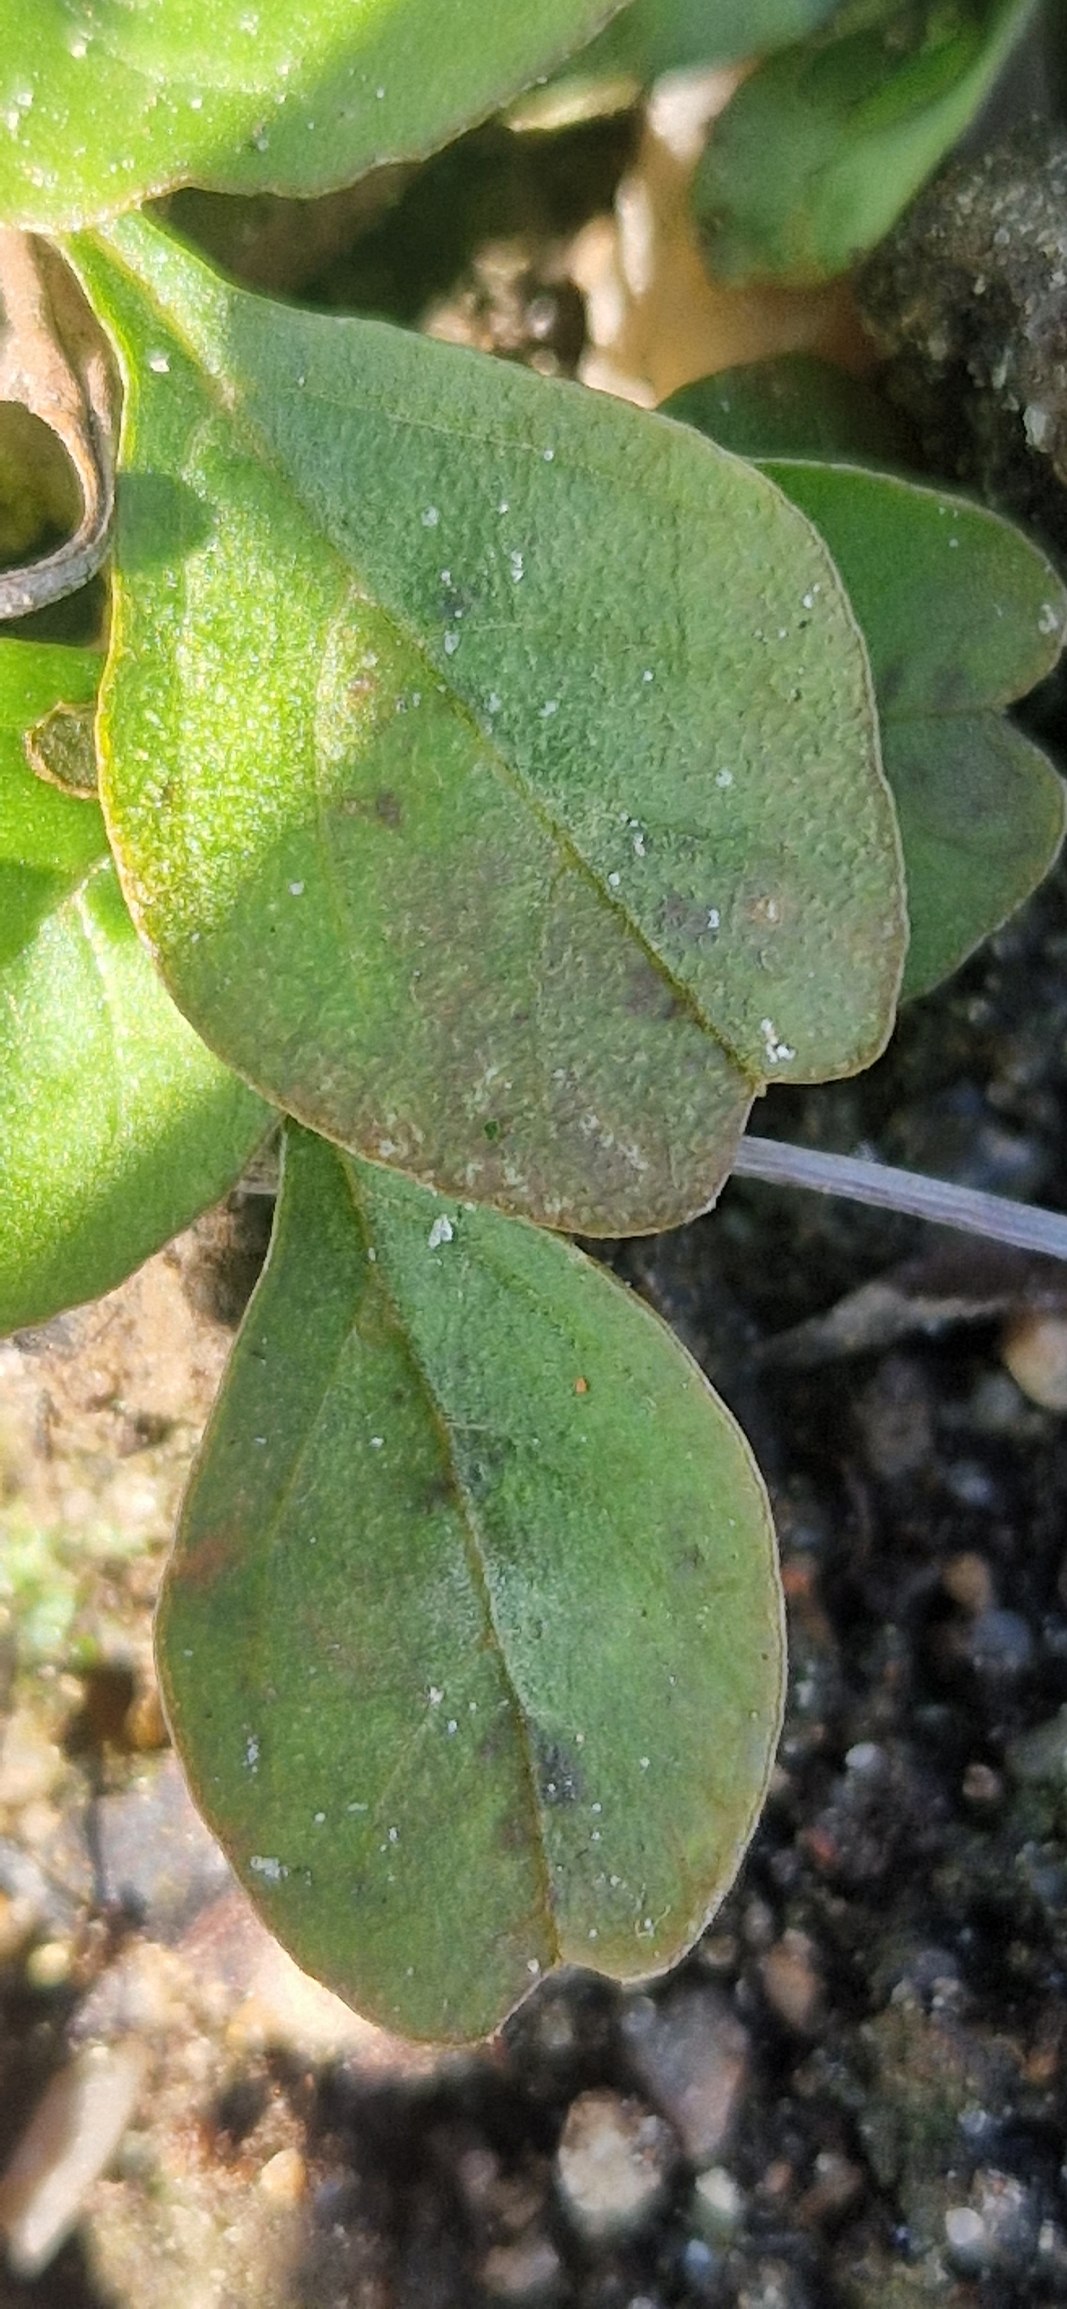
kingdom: Plantae
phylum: Tracheophyta
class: Magnoliopsida
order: Caryophyllales
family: Amaranthaceae
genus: Amaranthus
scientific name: Amaranthus blitum
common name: Plet-amarant
